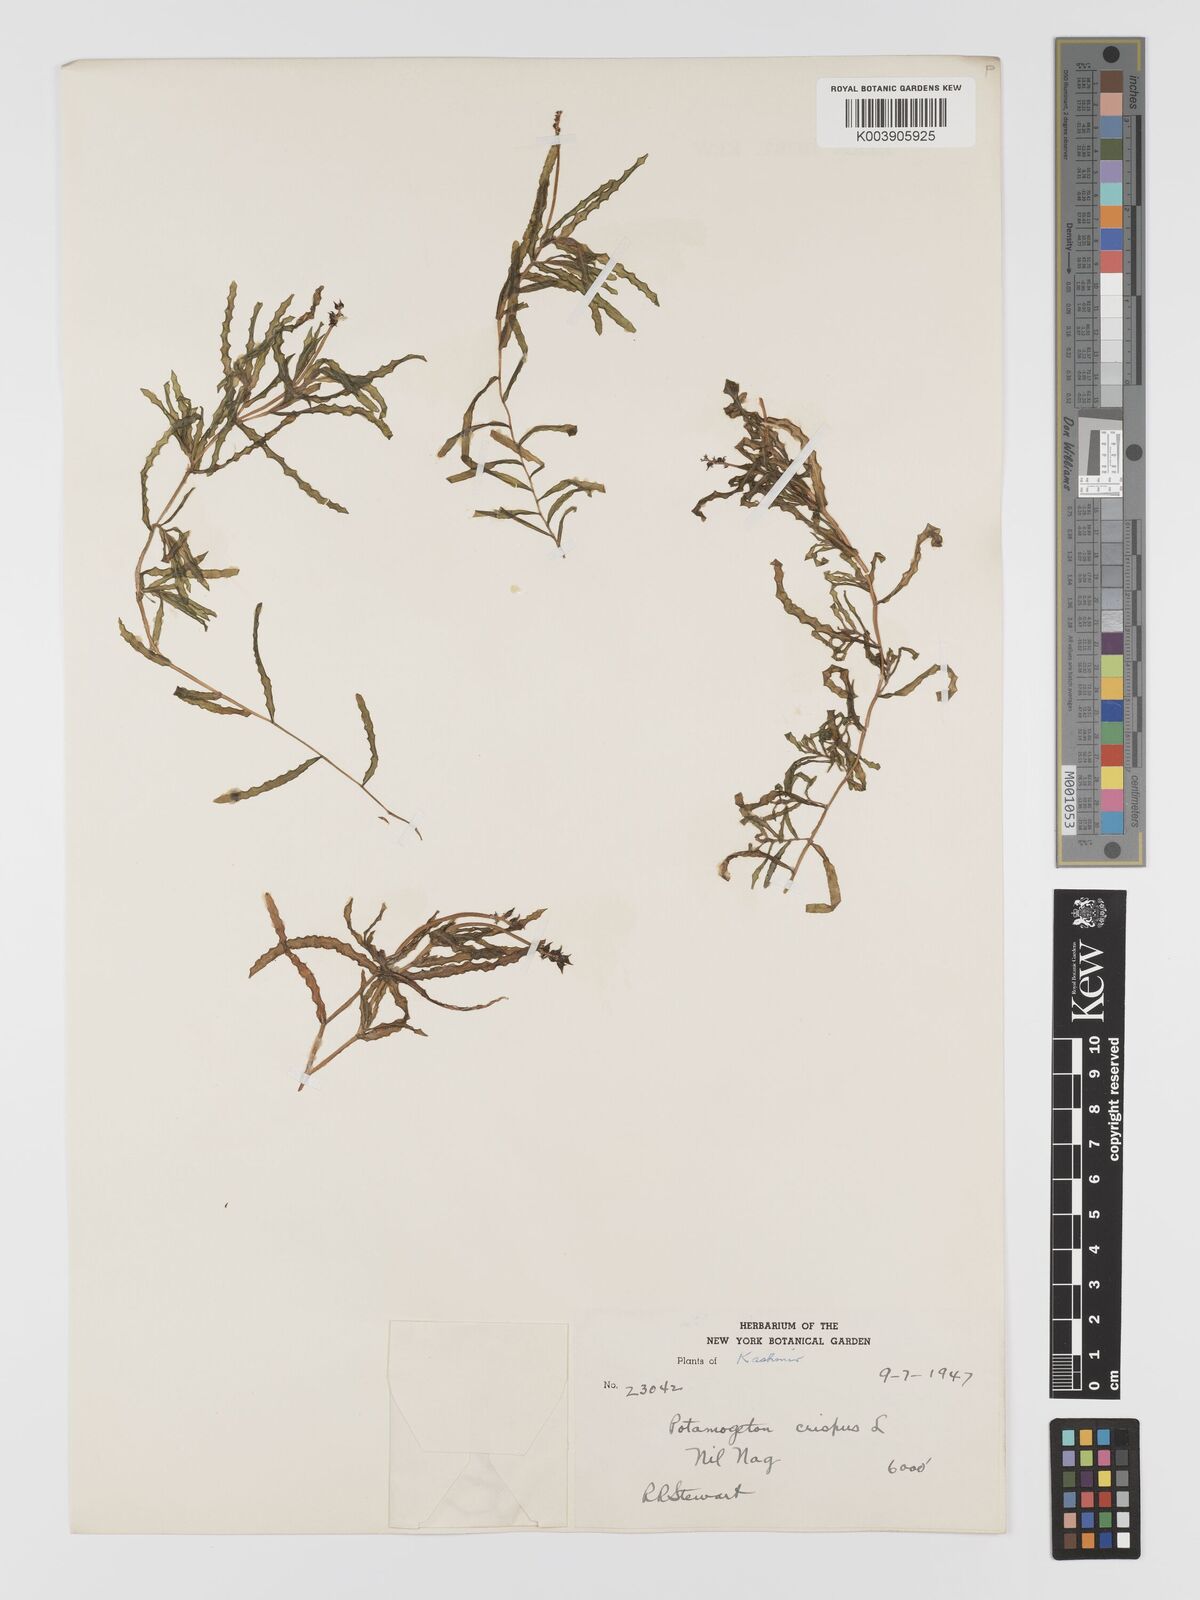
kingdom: Plantae
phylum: Tracheophyta
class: Liliopsida
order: Alismatales
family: Potamogetonaceae
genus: Potamogeton
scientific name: Potamogeton crispus
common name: Curled pondweed
